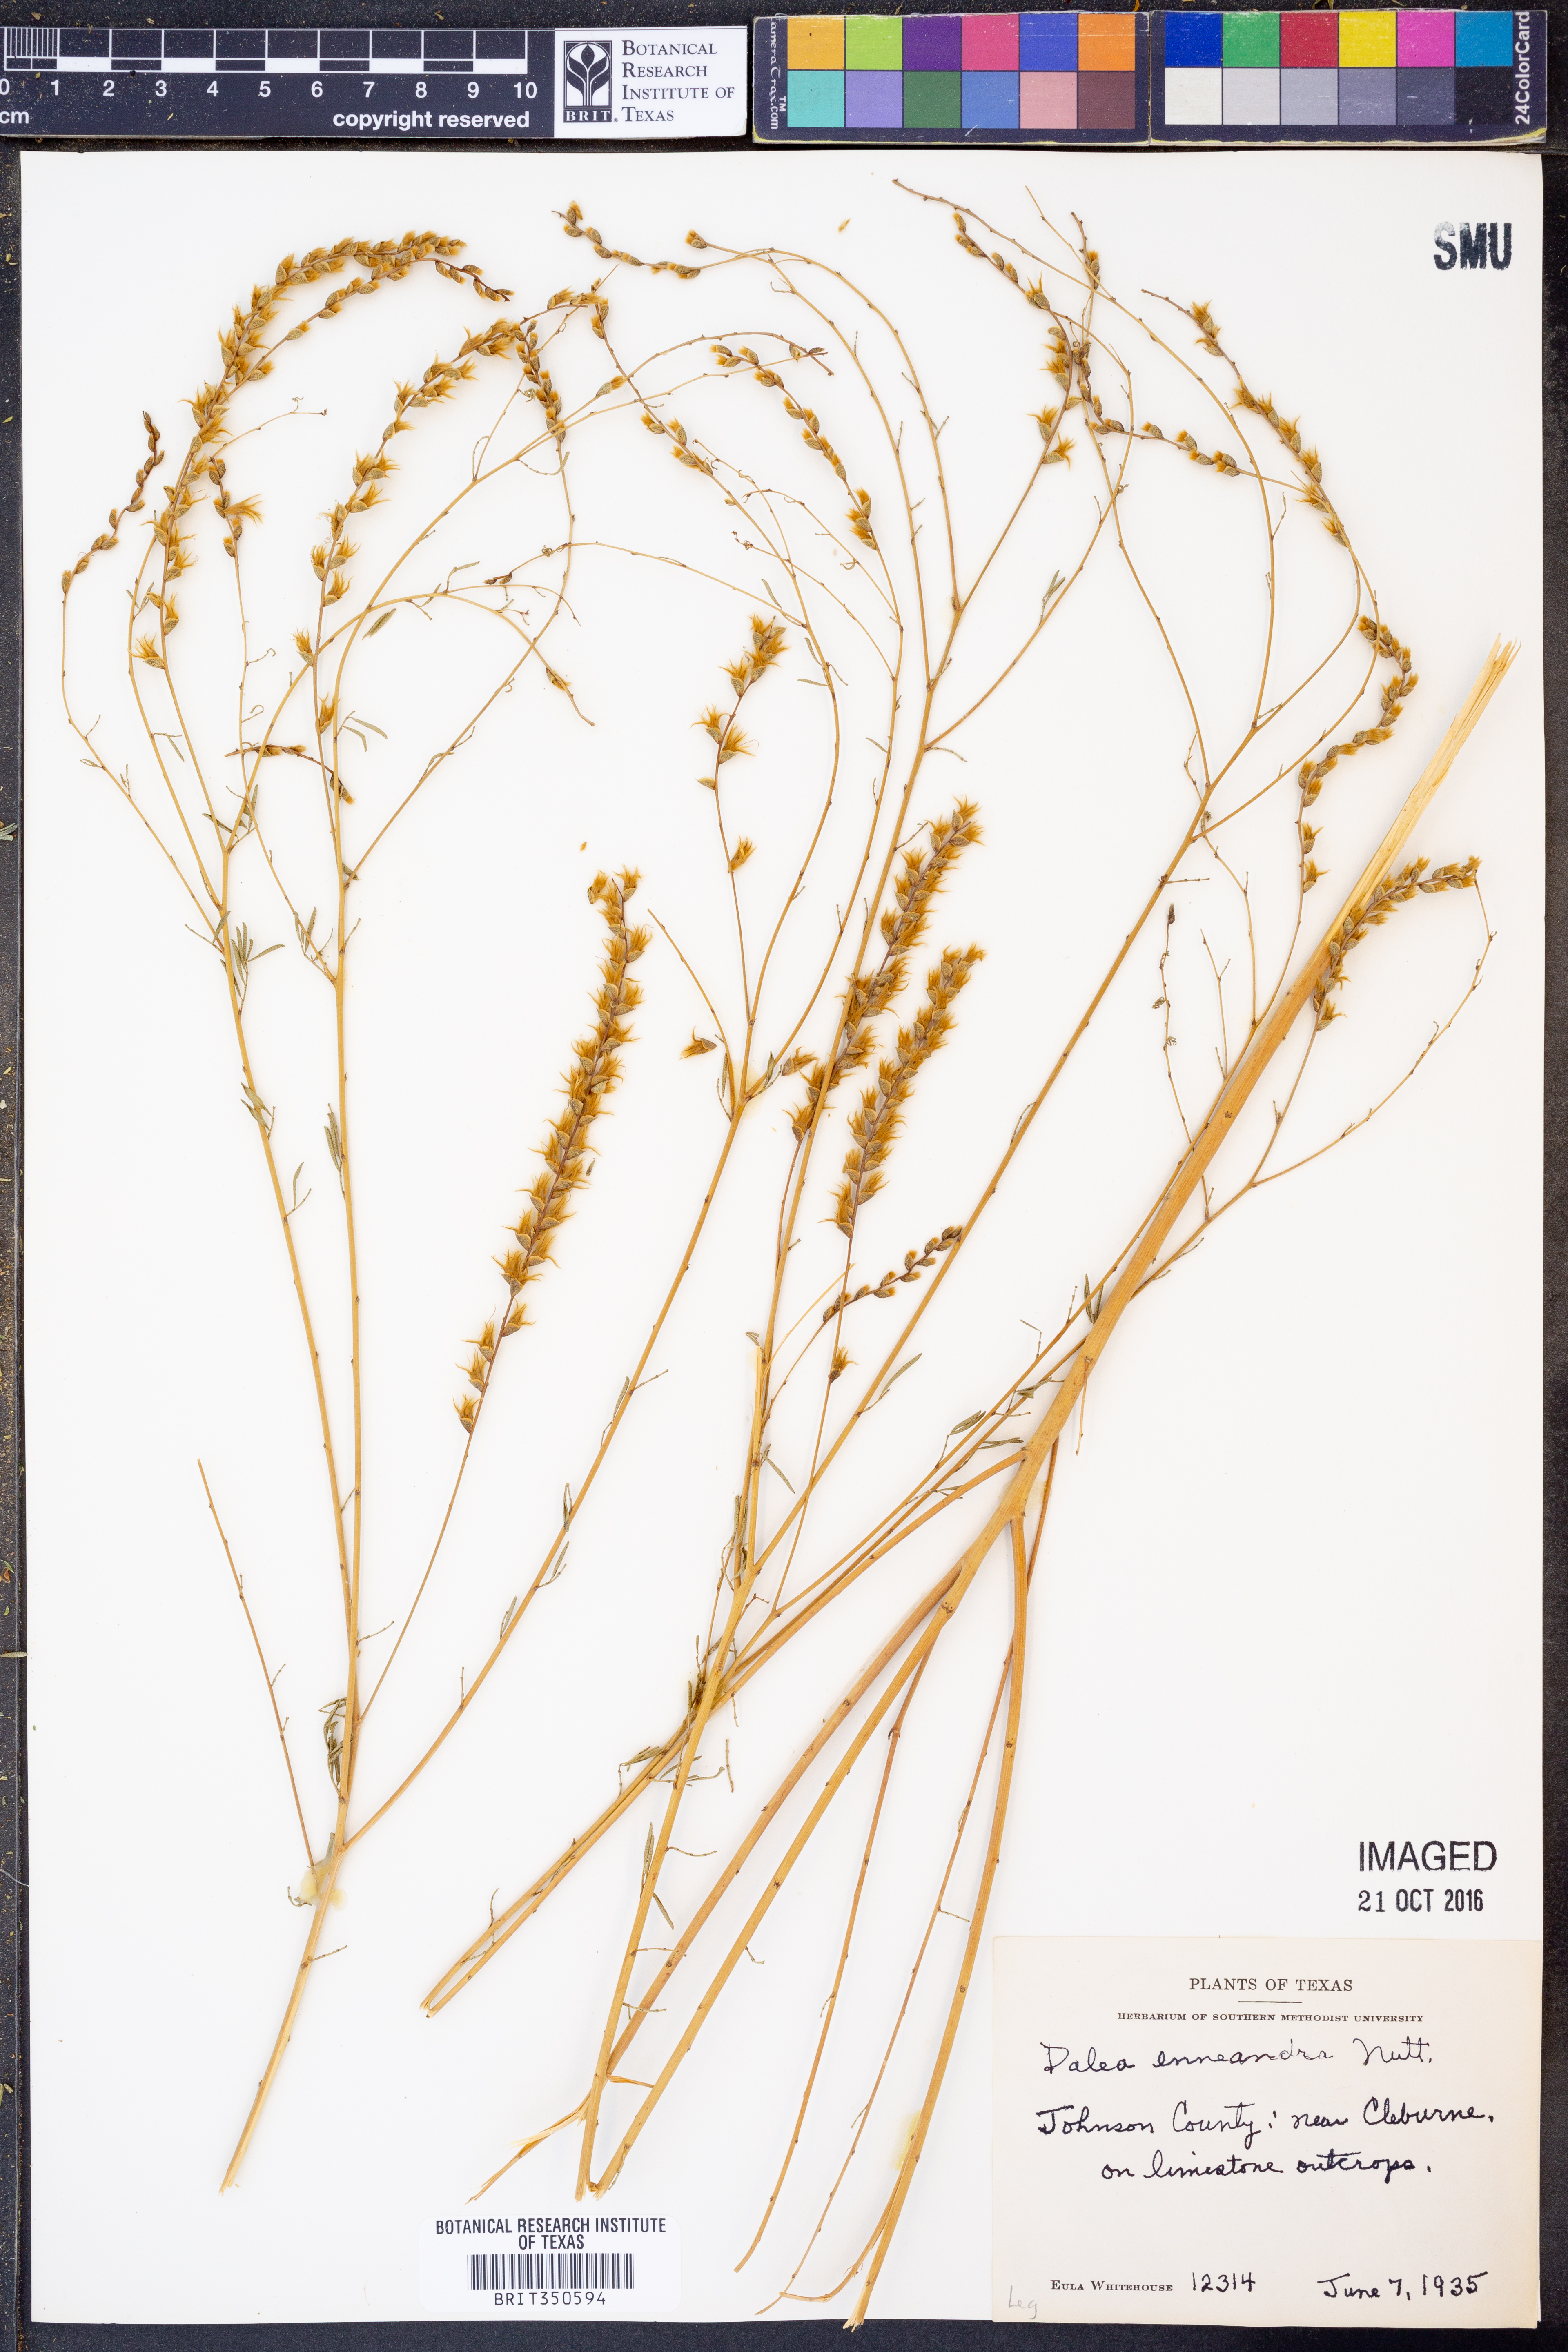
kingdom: Plantae
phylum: Tracheophyta
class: Magnoliopsida
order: Fabales
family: Fabaceae
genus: Dalea
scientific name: Dalea enneandra
